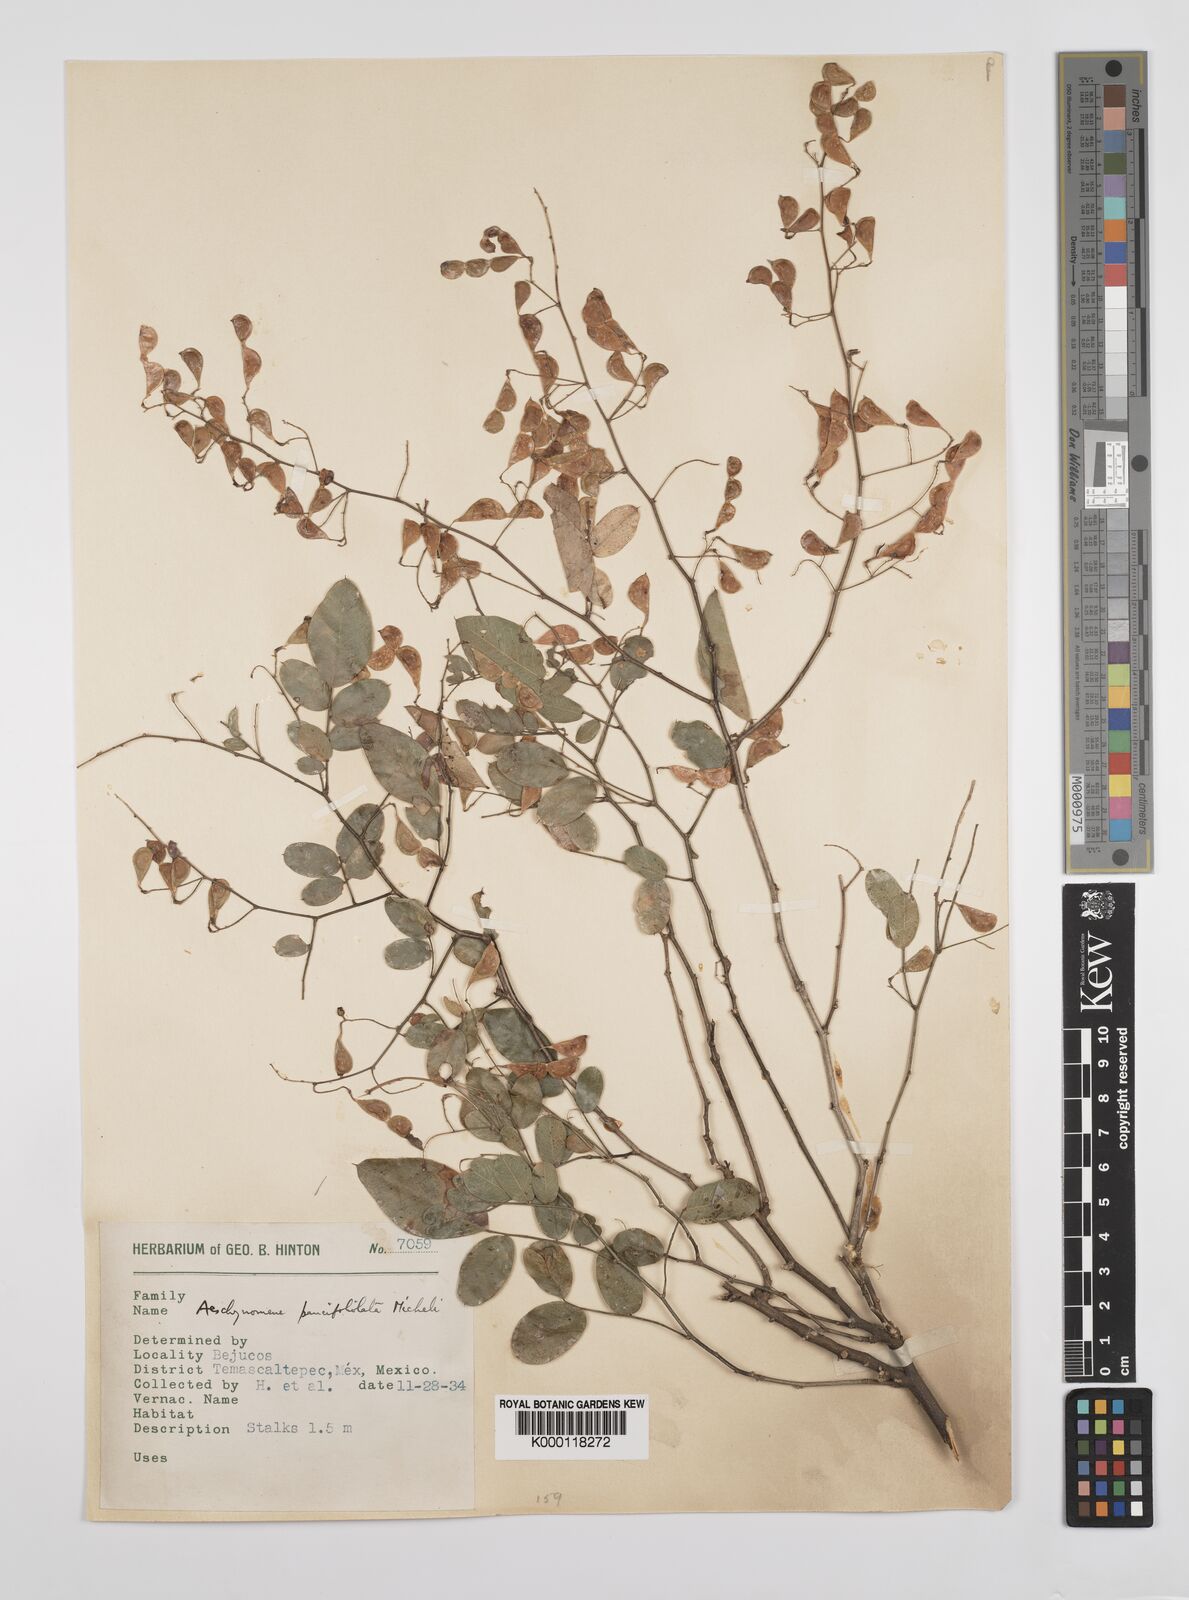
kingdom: Plantae
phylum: Tracheophyta
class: Magnoliopsida
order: Fabales
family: Fabaceae
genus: Ctenodon
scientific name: Ctenodon paucifoliolatus
